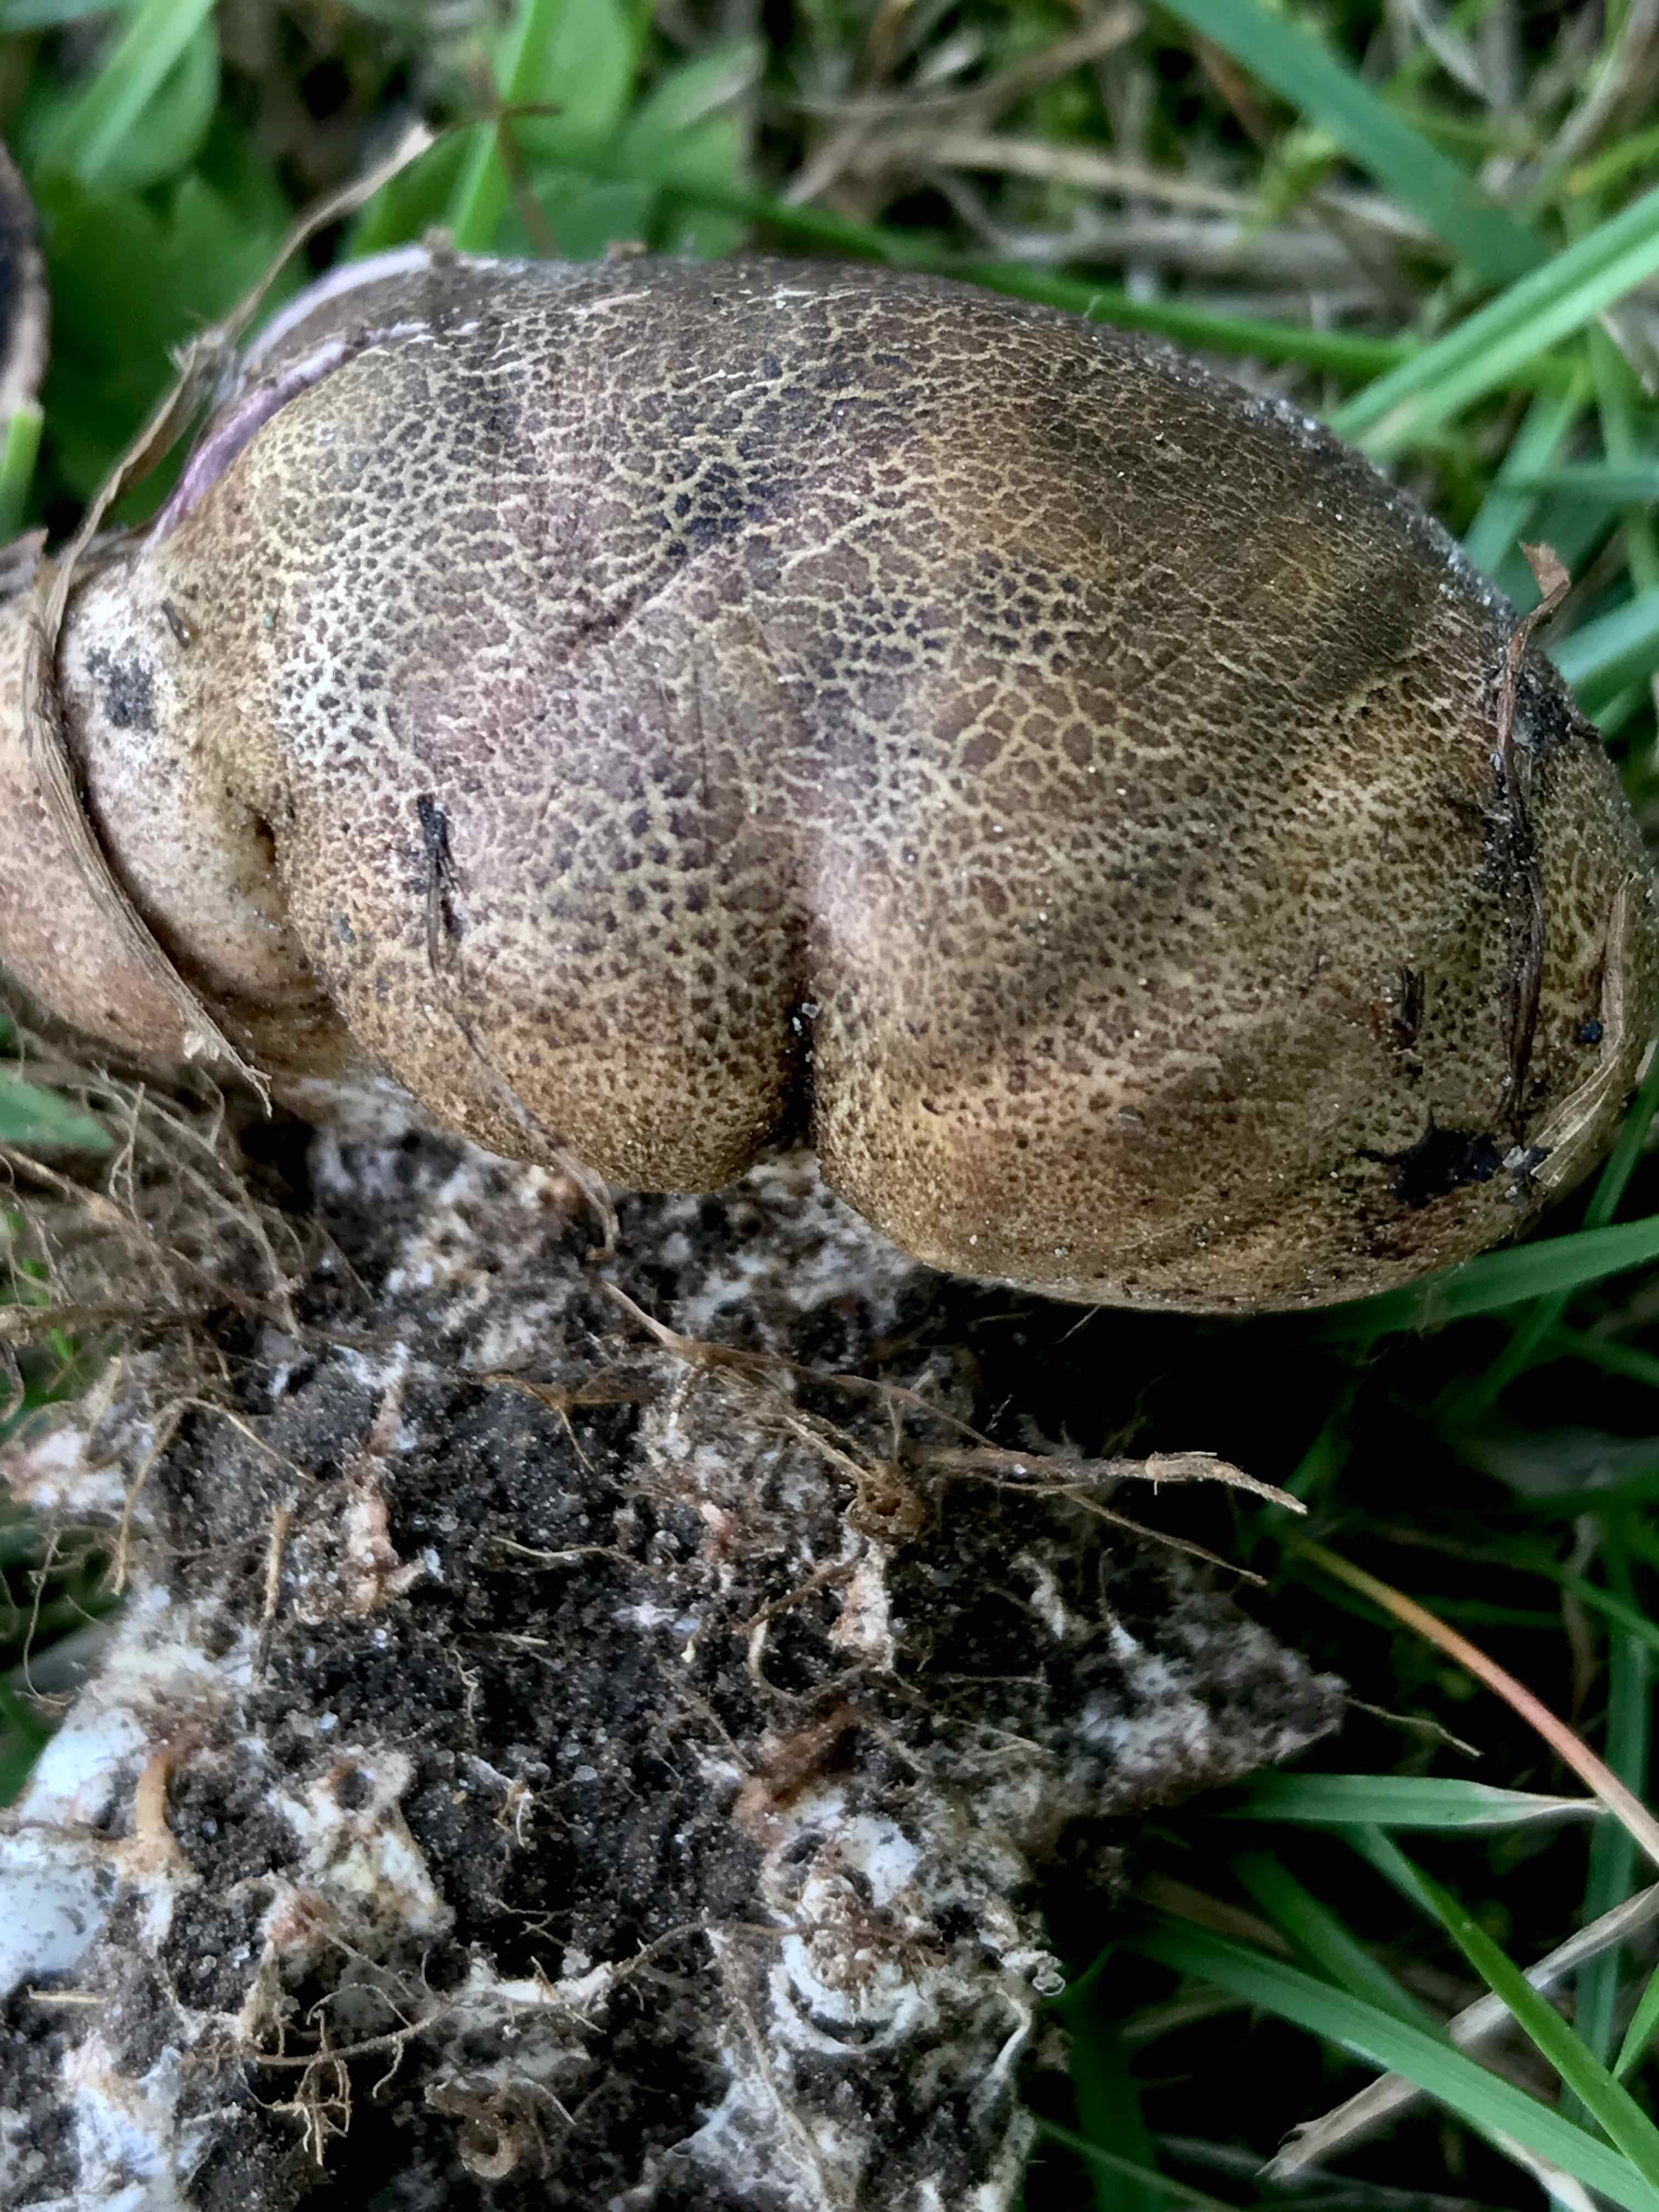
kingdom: Fungi
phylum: Basidiomycota
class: Agaricomycetes
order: Boletales
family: Sclerodermataceae
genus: Scleroderma
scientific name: Scleroderma areolatum
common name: plettet bruskbold
